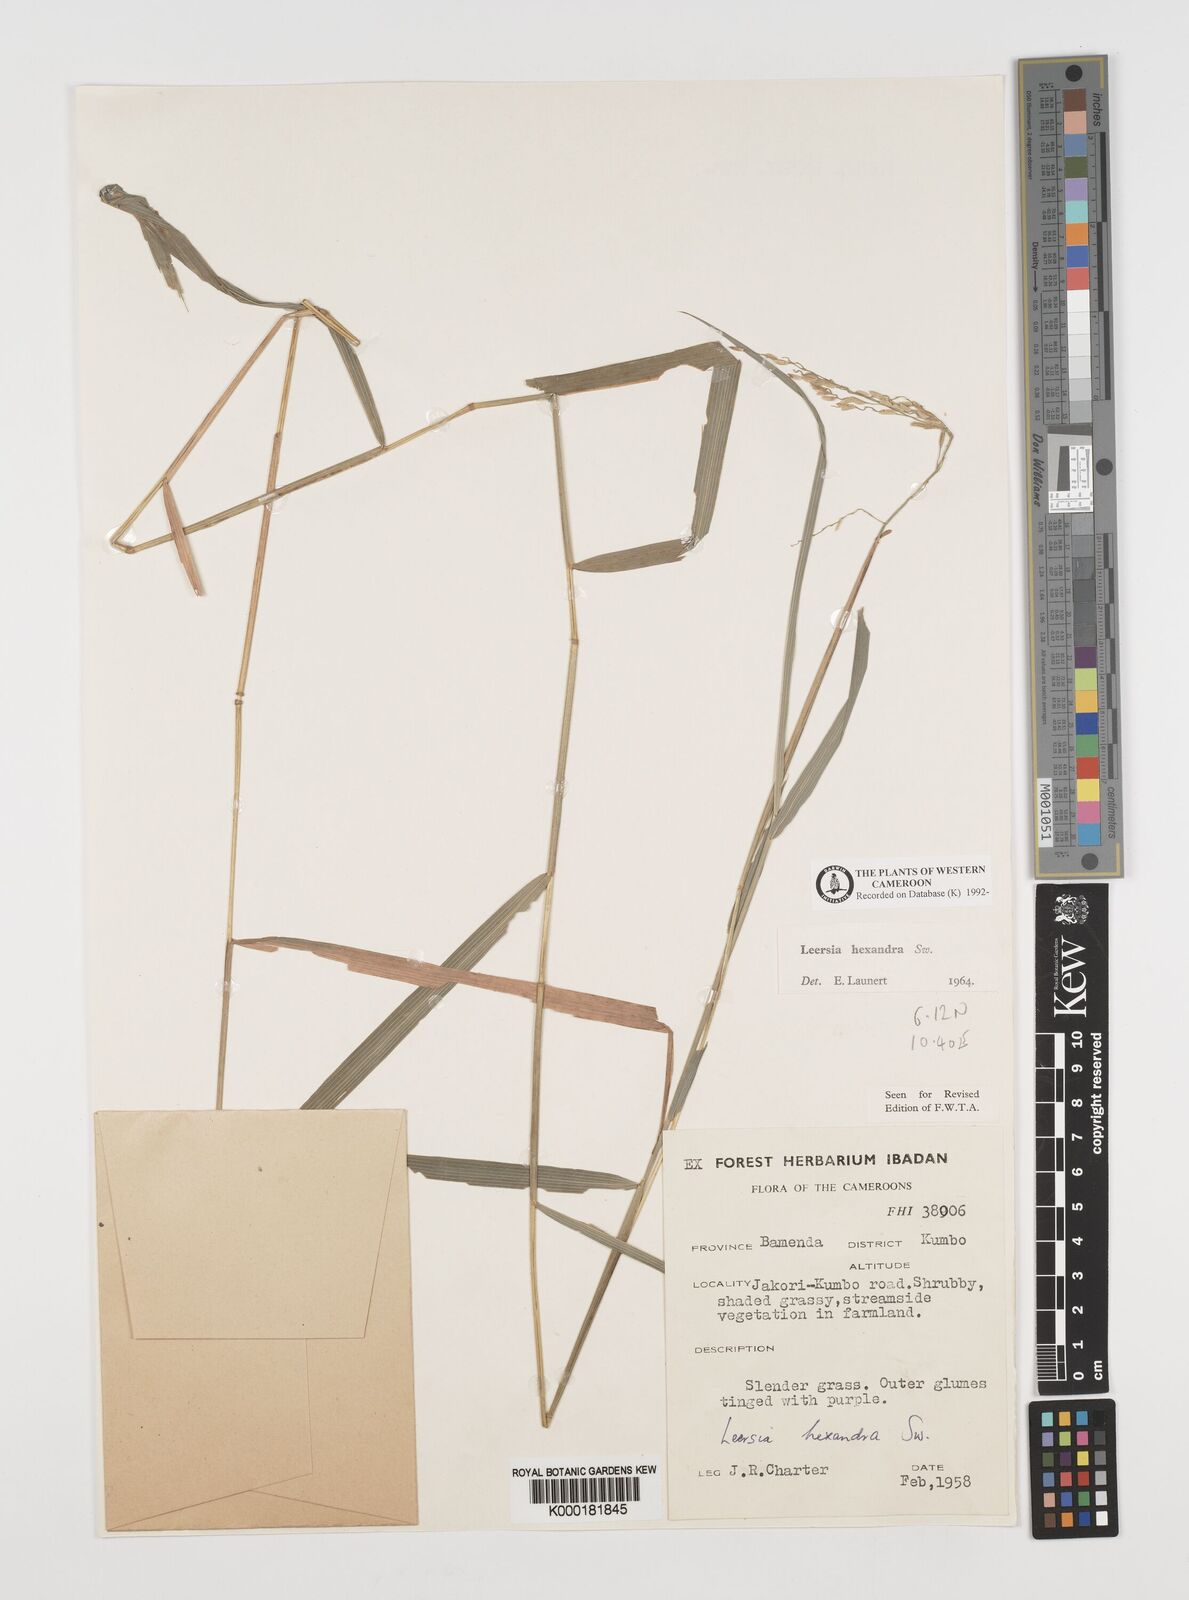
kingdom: Plantae
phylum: Tracheophyta
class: Liliopsida
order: Poales
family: Poaceae
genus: Leersia
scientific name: Leersia hexandra
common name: Southern cut grass
